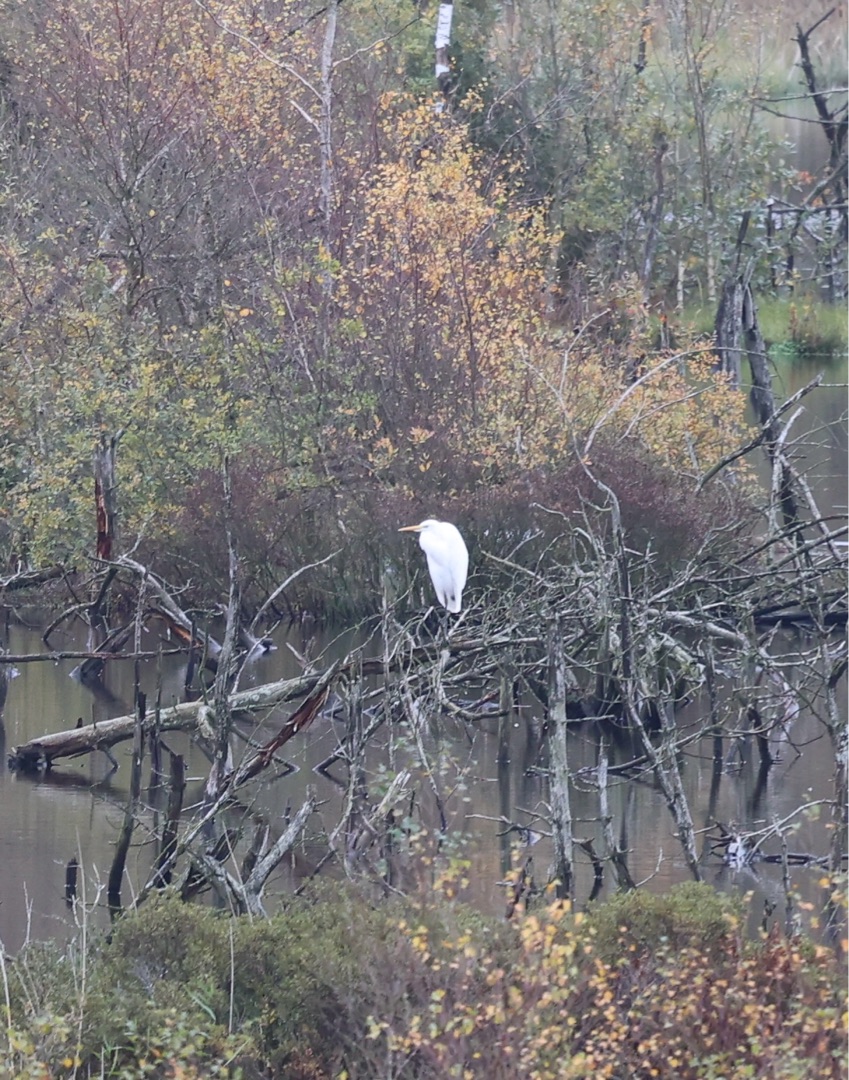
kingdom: Animalia
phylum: Chordata
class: Aves
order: Pelecaniformes
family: Ardeidae
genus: Ardea
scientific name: Ardea alba
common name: Sølvhejre
